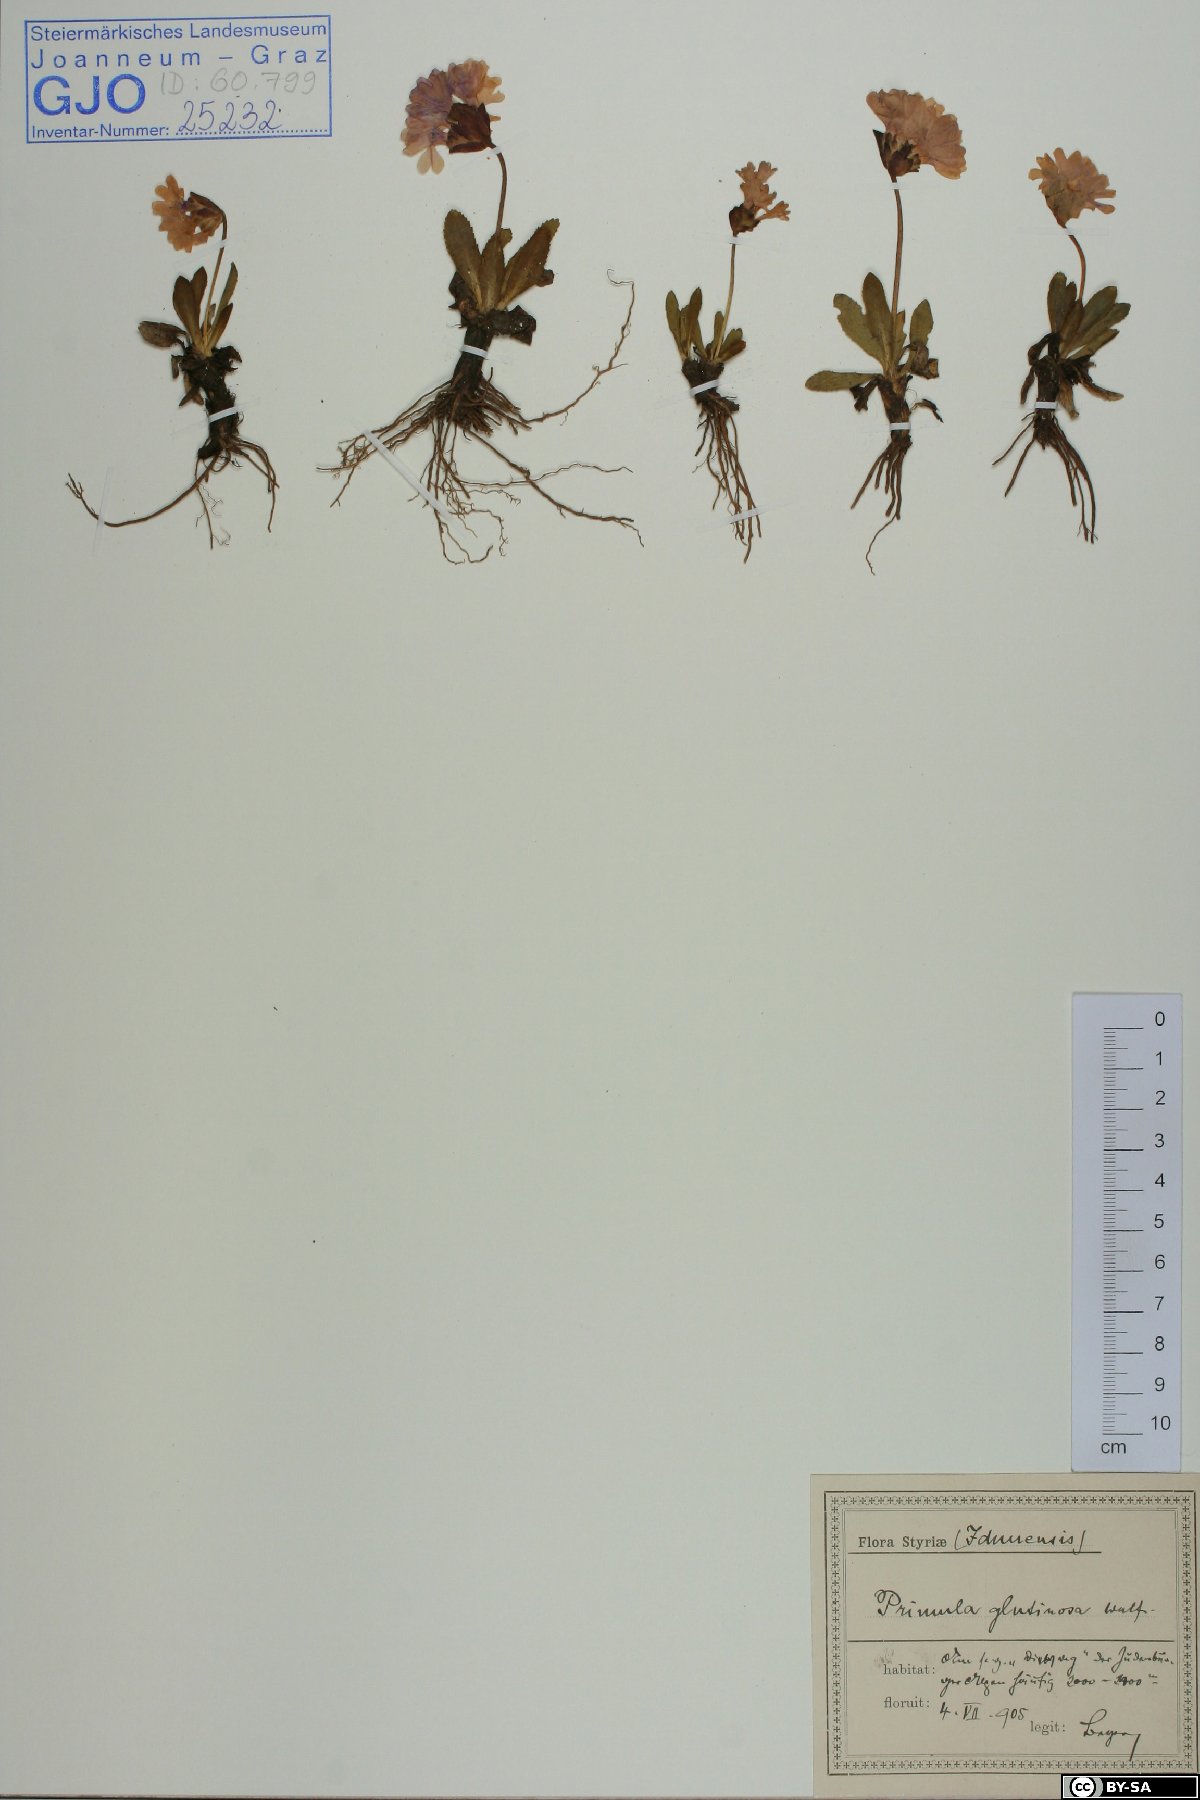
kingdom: Plantae
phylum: Tracheophyta
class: Magnoliopsida
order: Ericales
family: Primulaceae
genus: Primula
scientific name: Primula glutinosa
